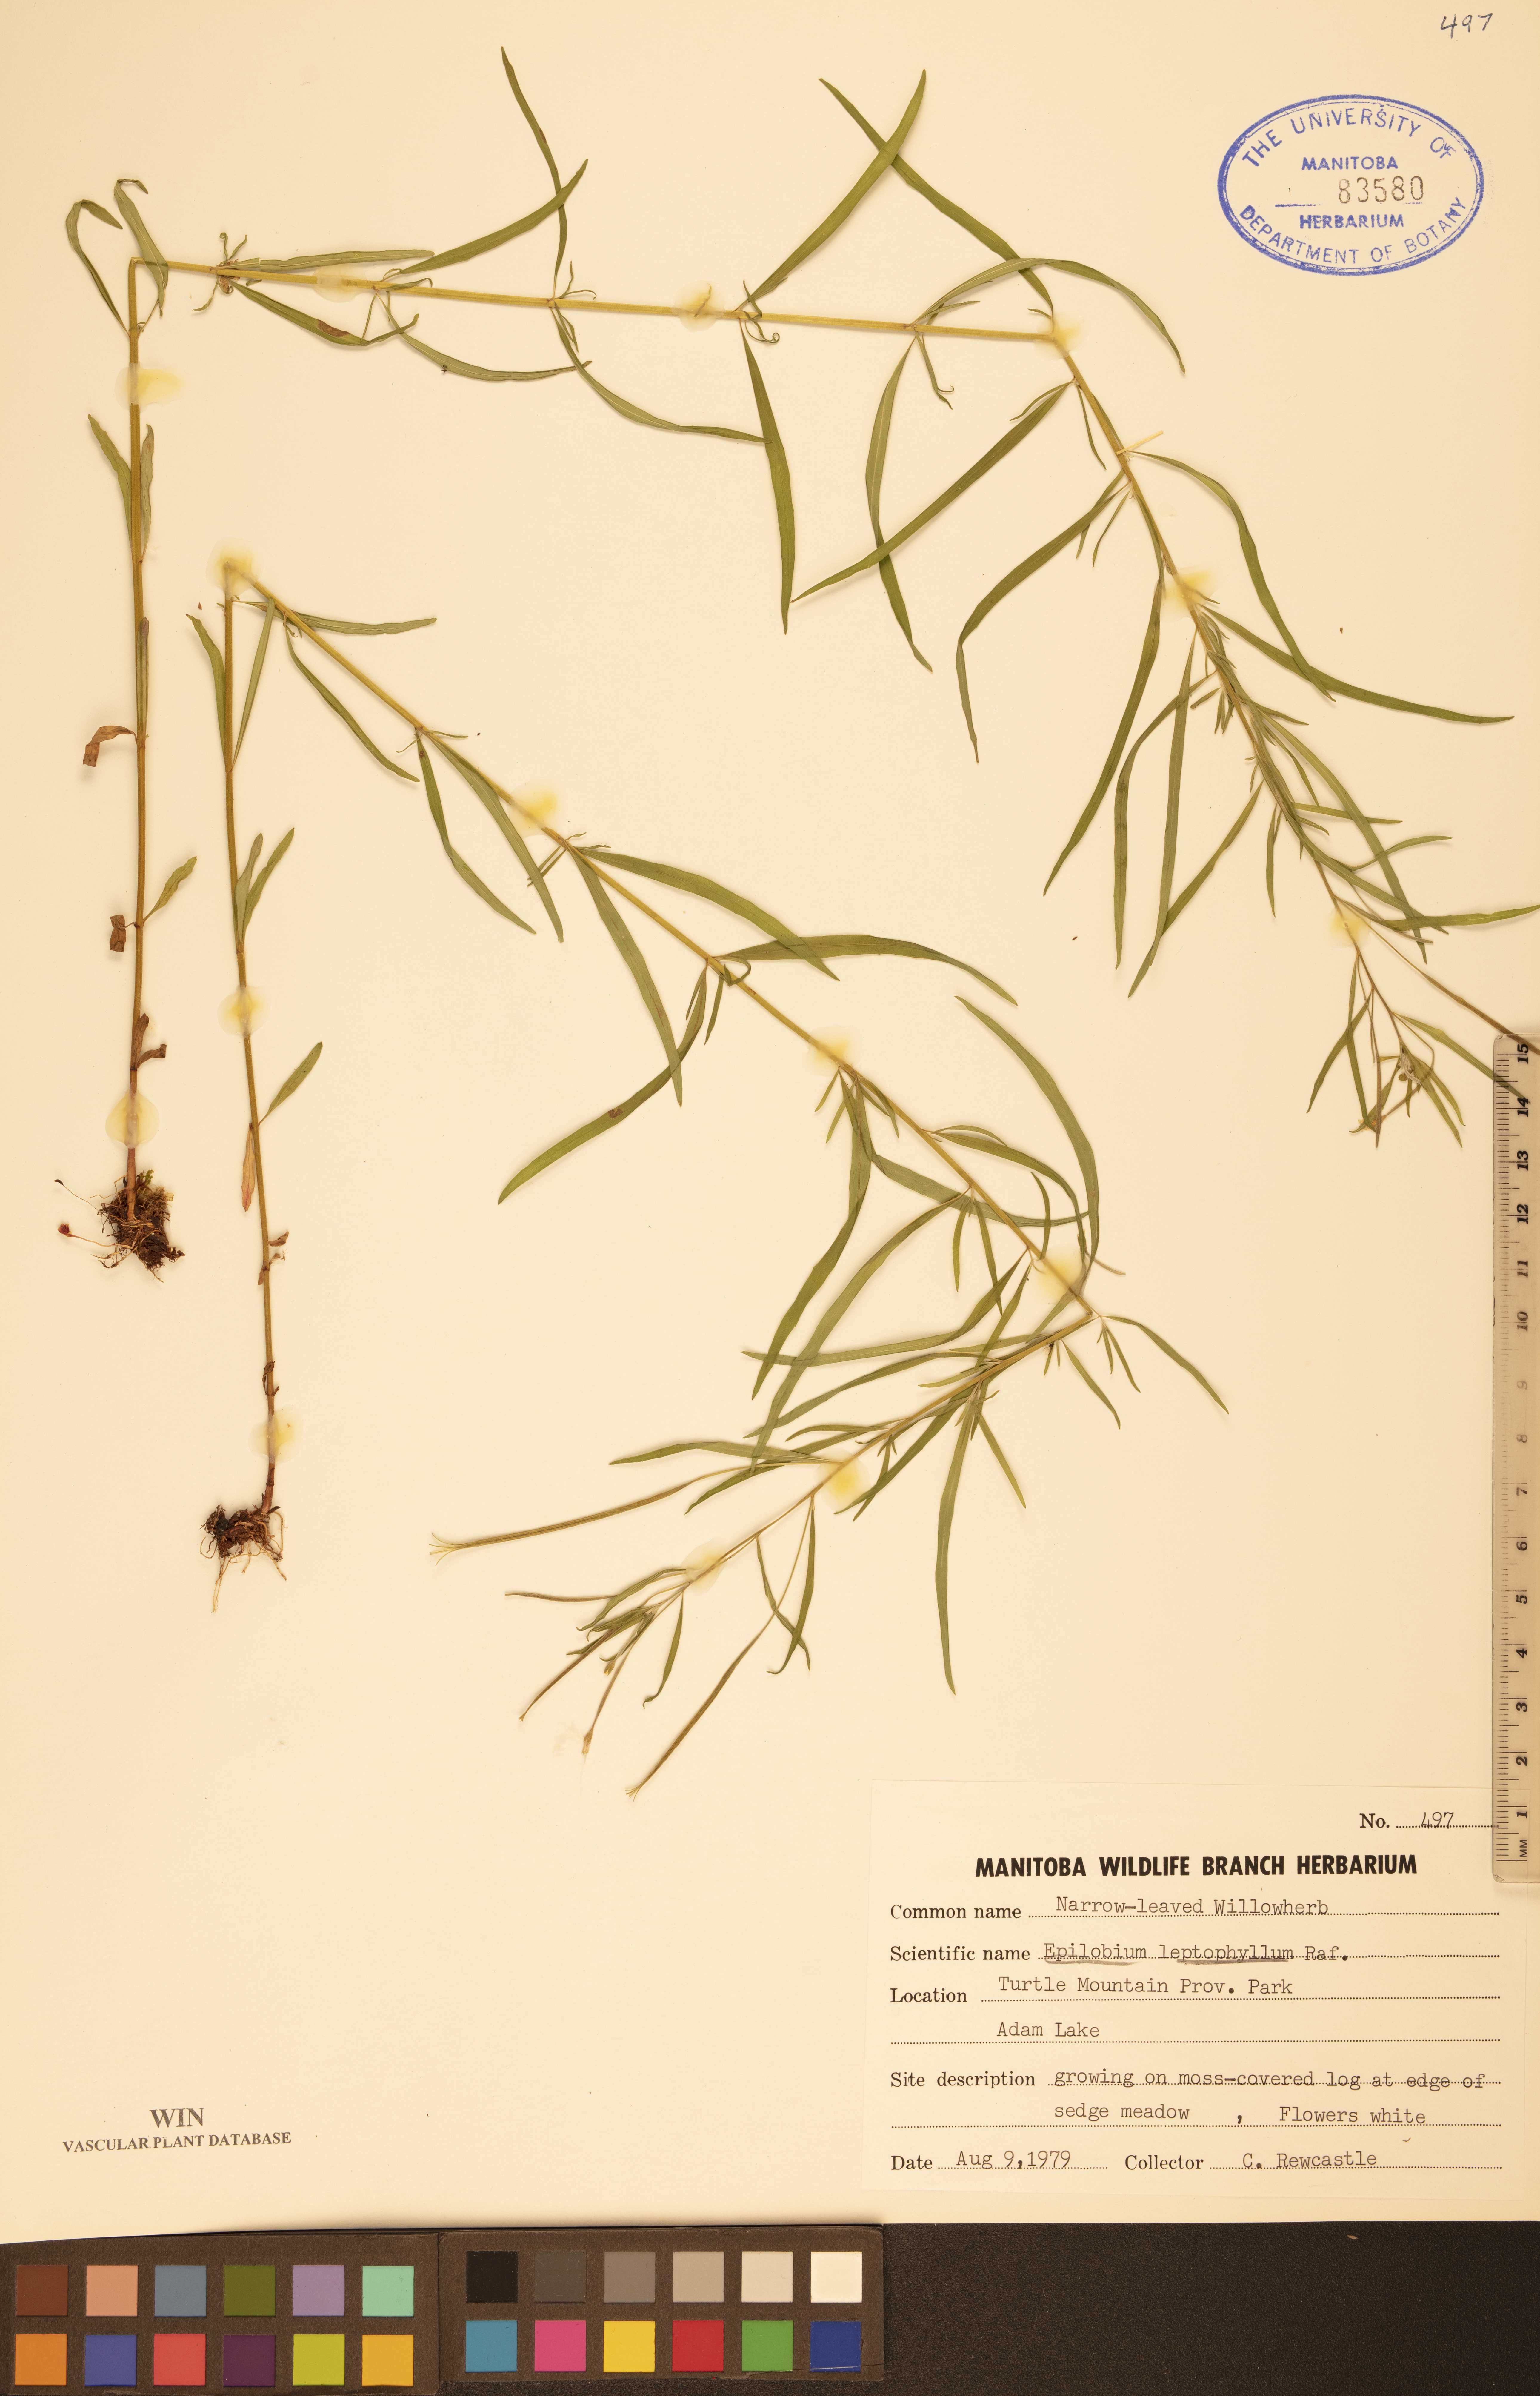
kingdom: Plantae
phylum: Tracheophyta
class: Magnoliopsida
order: Myrtales
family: Onagraceae
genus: Epilobium
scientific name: Epilobium leptophyllum
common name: Bog willowherb
